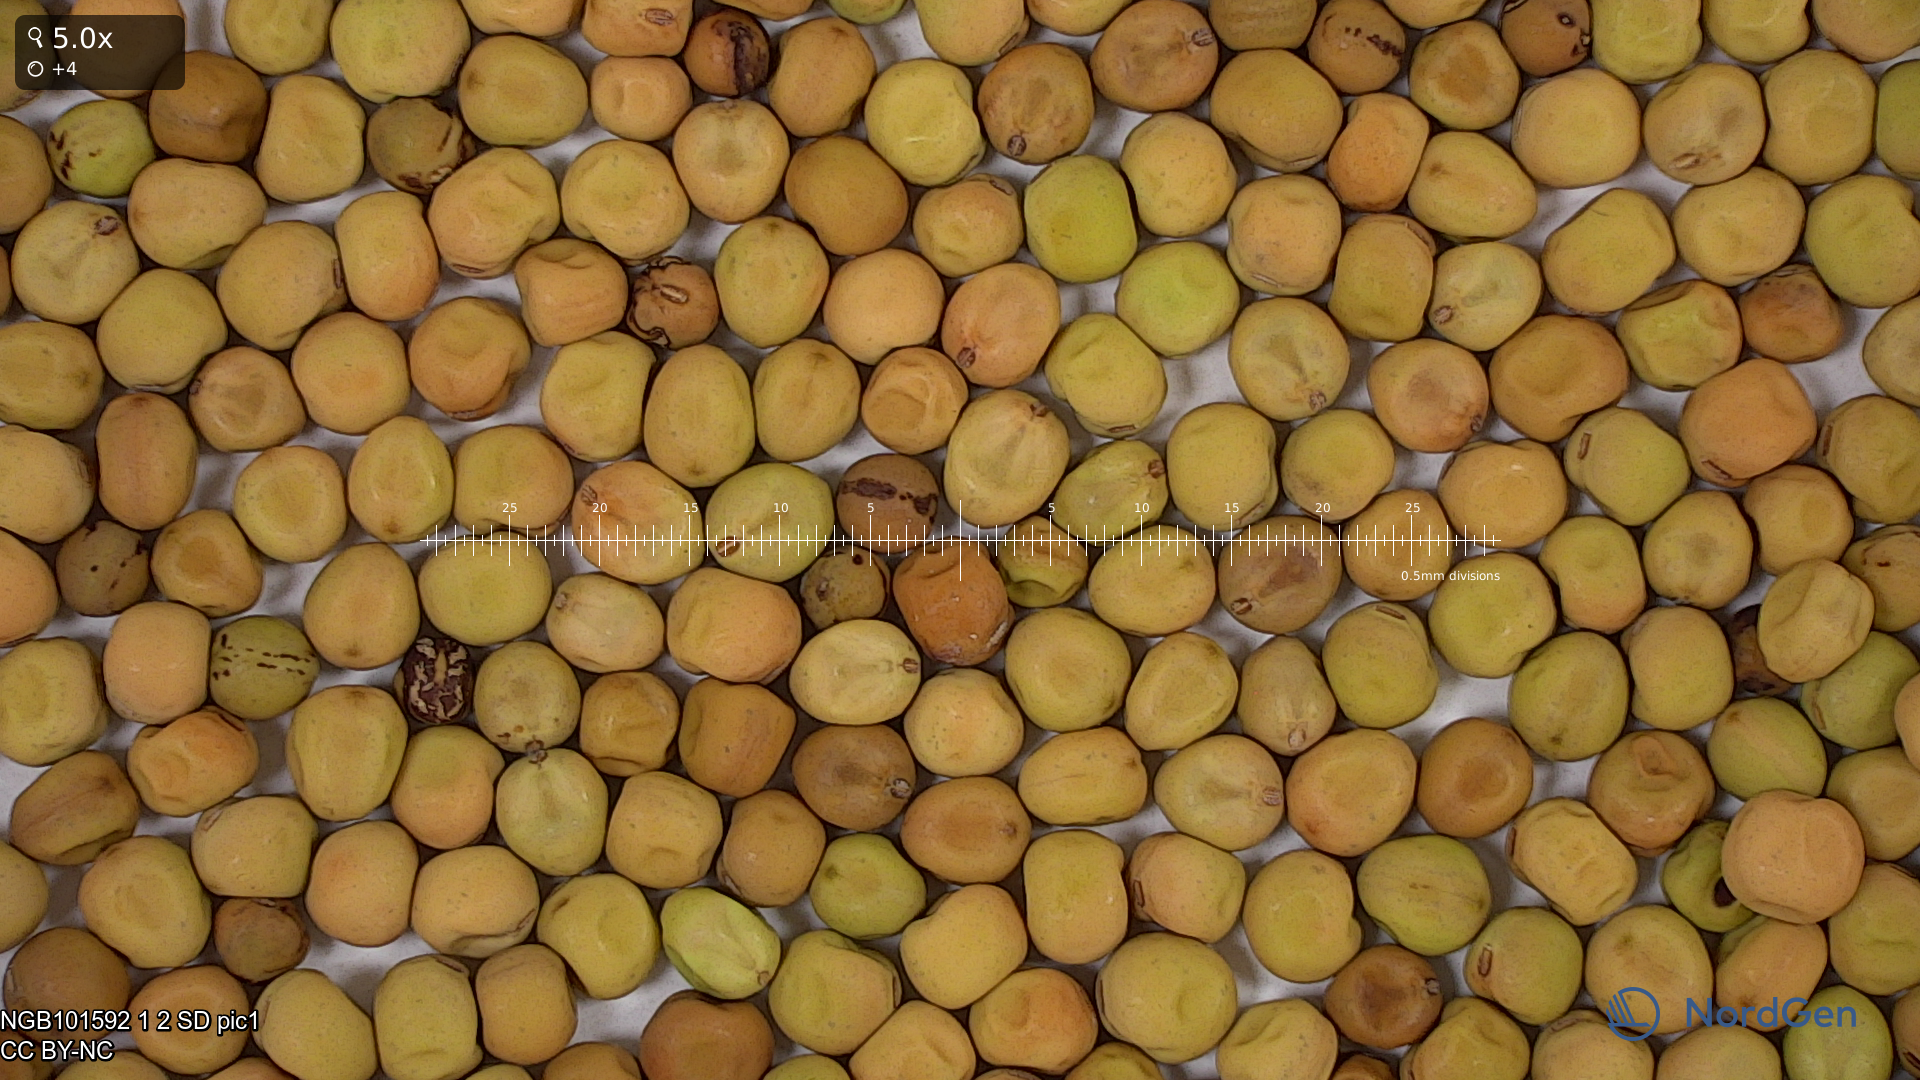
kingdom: Plantae
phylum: Tracheophyta
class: Magnoliopsida
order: Fabales
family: Fabaceae
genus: Lathyrus
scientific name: Lathyrus oleraceus
